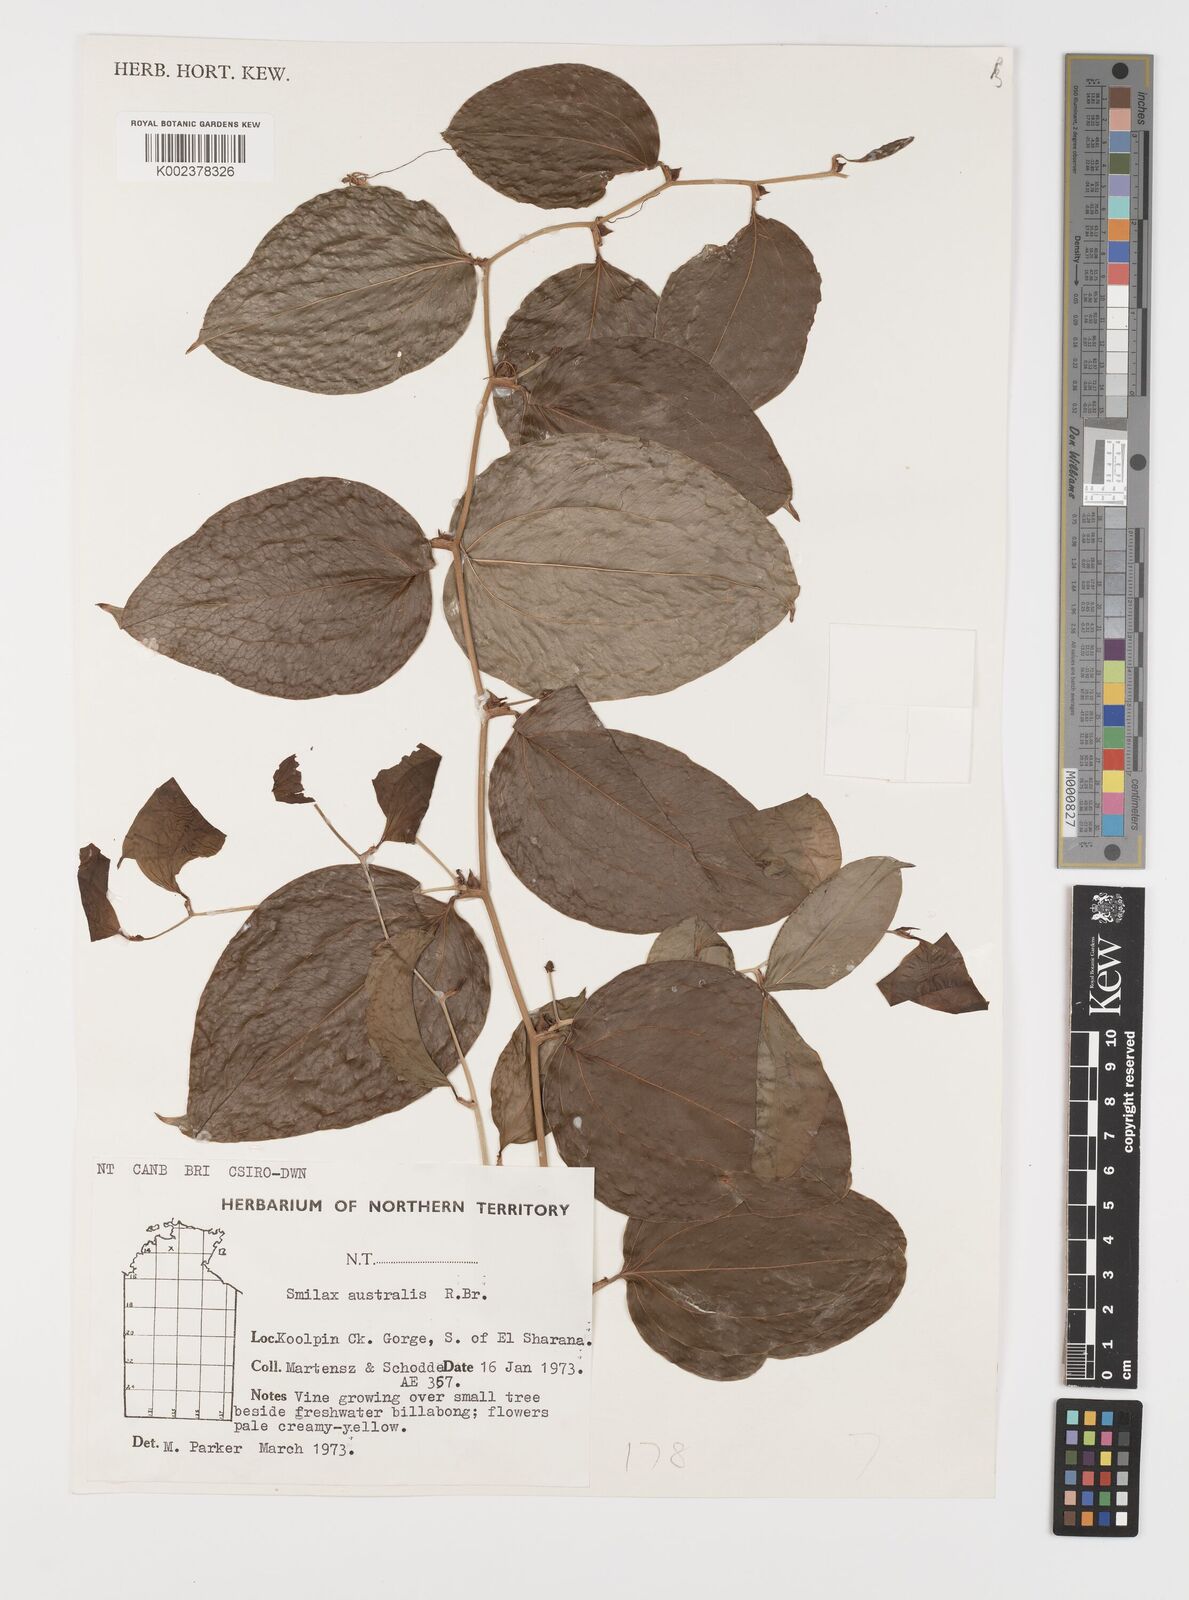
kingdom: Plantae
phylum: Tracheophyta
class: Liliopsida
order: Liliales
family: Smilacaceae
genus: Smilax
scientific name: Smilax australis
